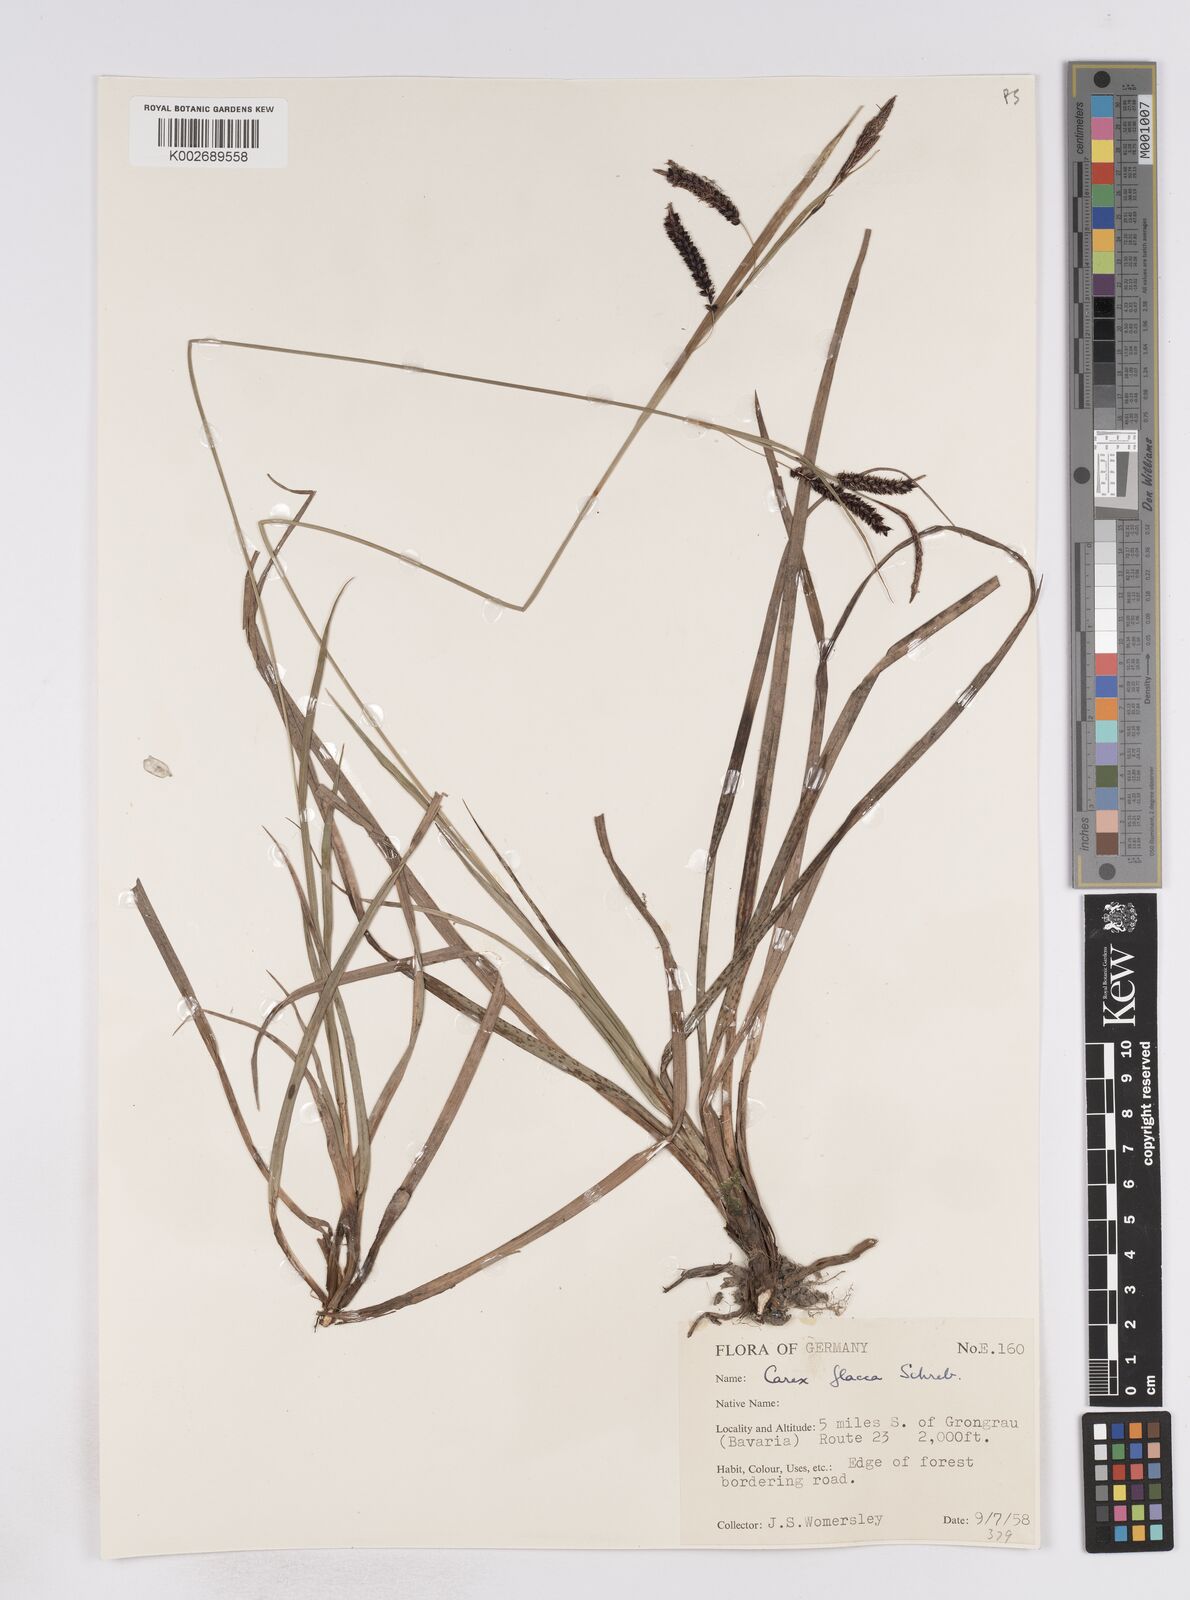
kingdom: Plantae
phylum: Tracheophyta
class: Liliopsida
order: Poales
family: Cyperaceae
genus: Carex
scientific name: Carex flacca
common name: Glaucous sedge
